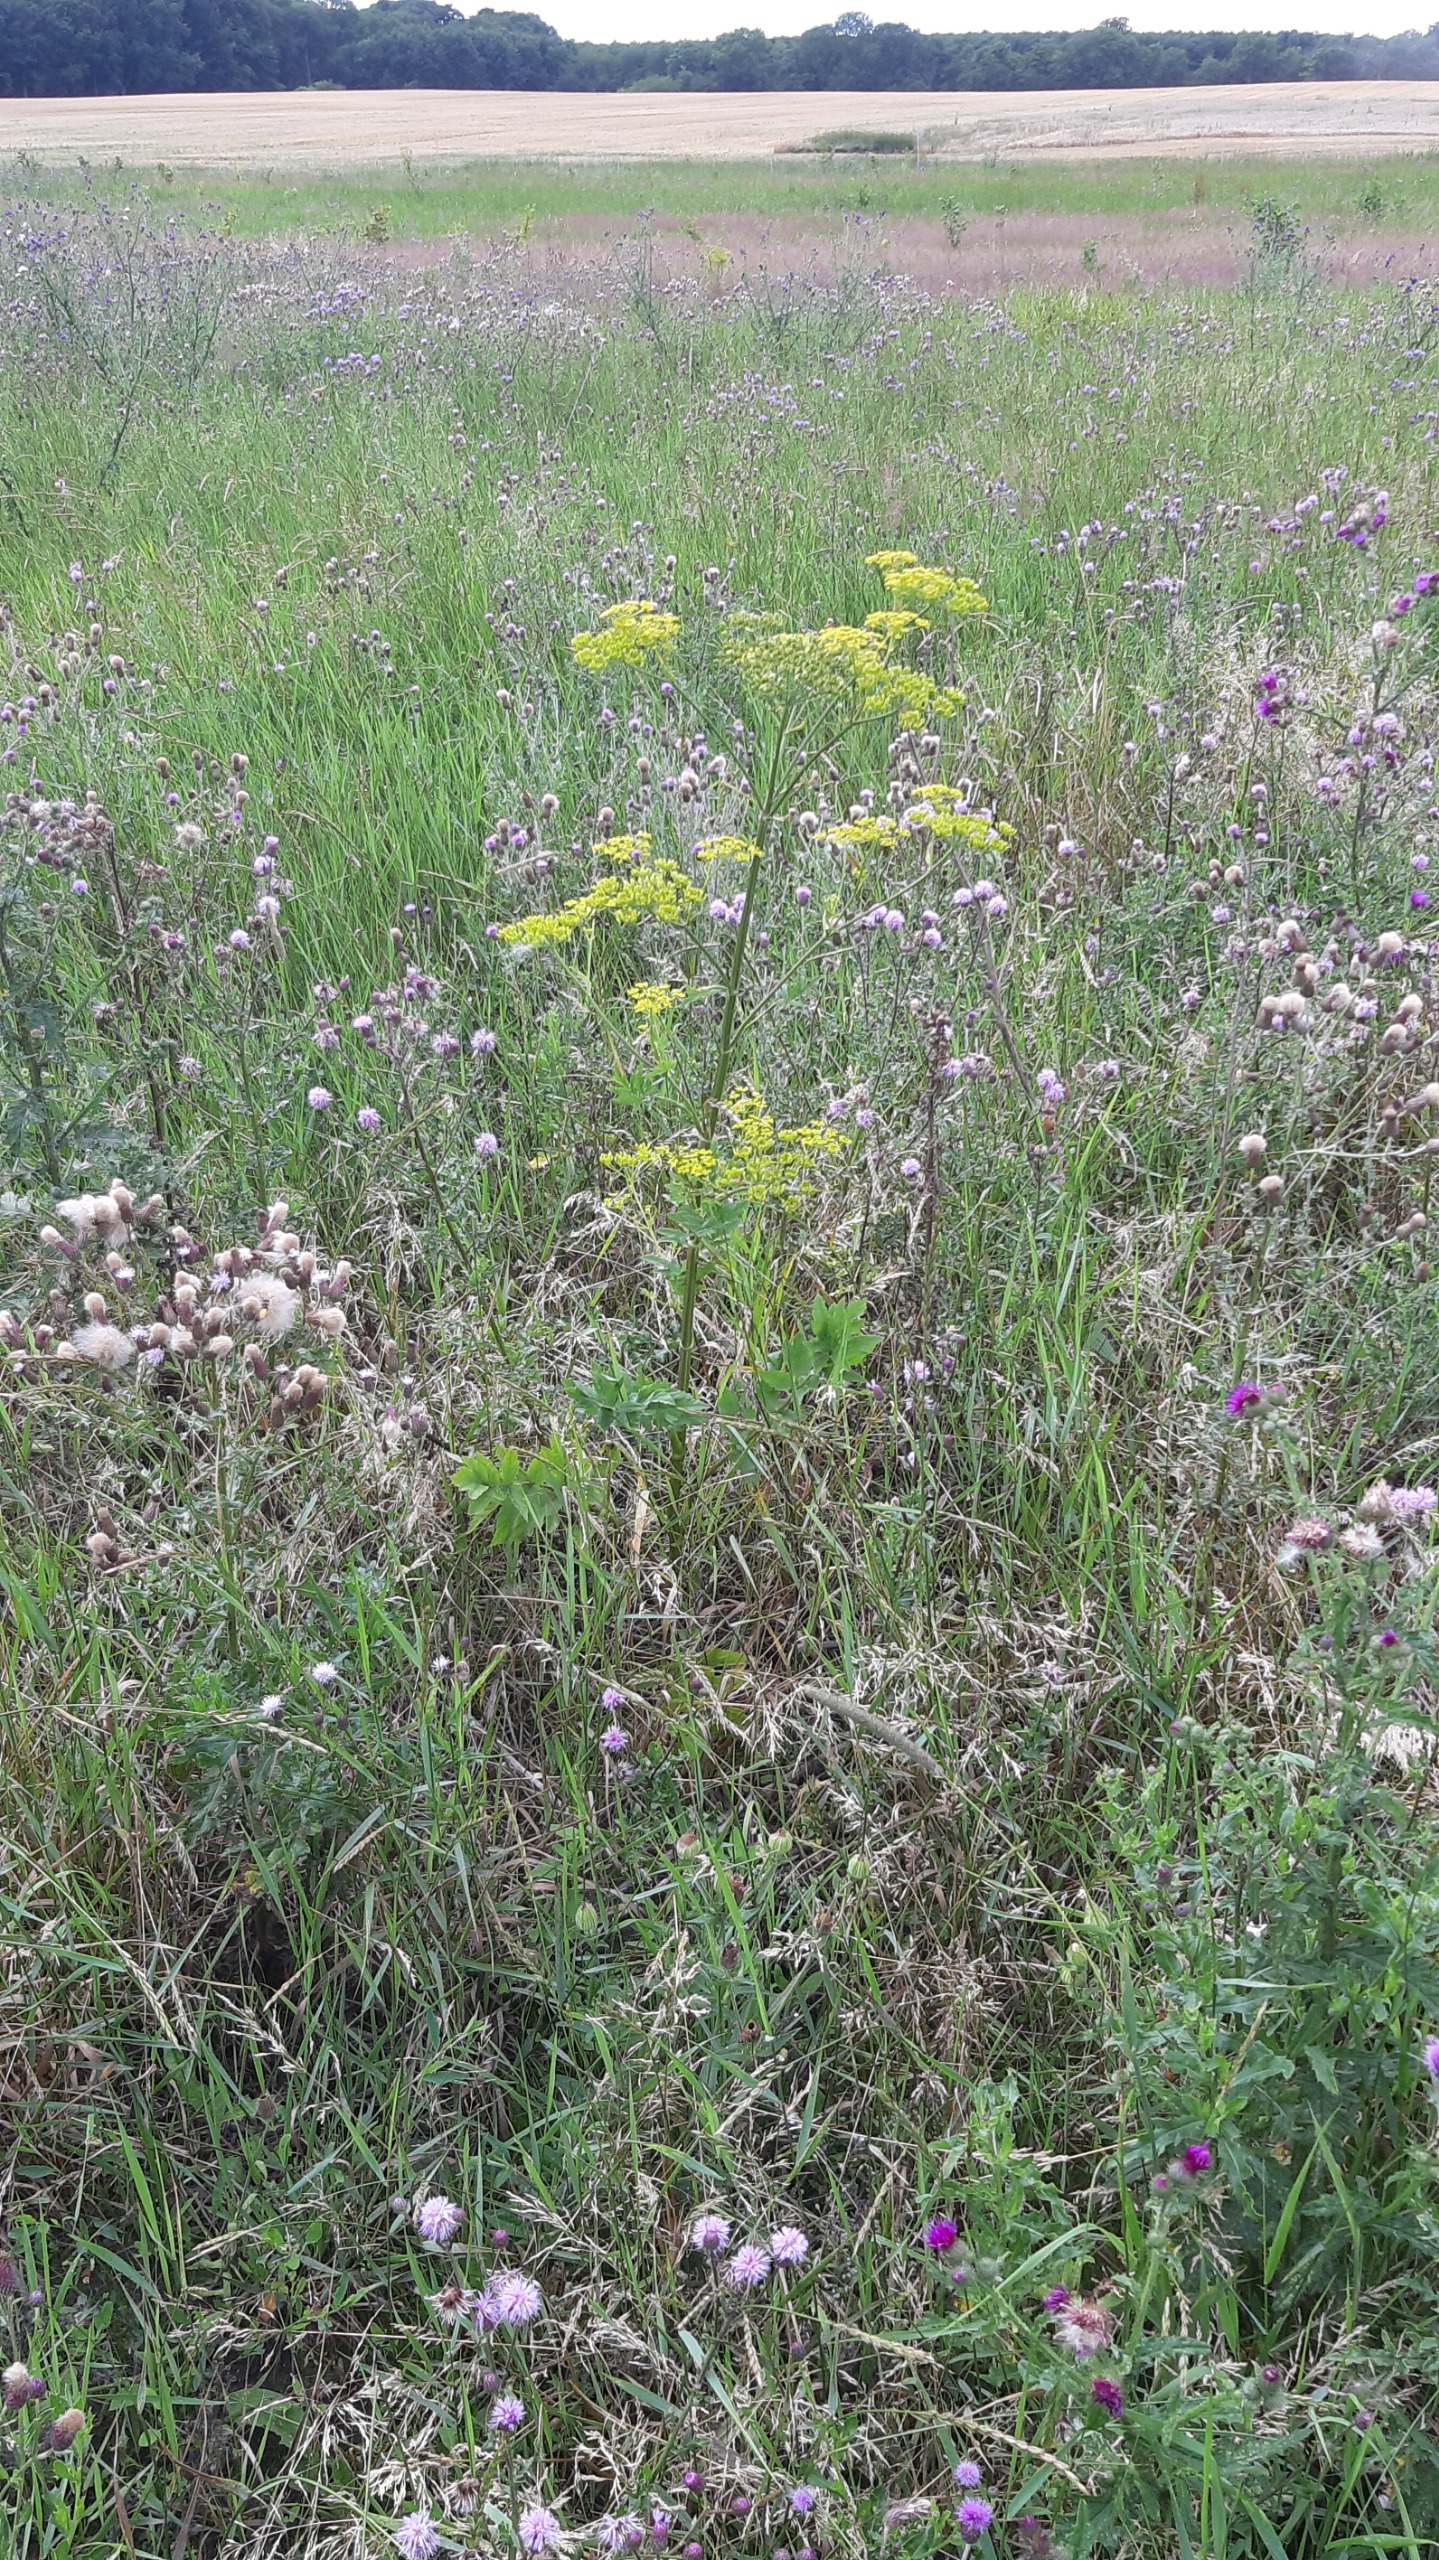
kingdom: Plantae
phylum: Tracheophyta
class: Magnoliopsida
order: Apiales
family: Apiaceae
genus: Pastinaca
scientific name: Pastinaca sativa
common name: Pastinak
